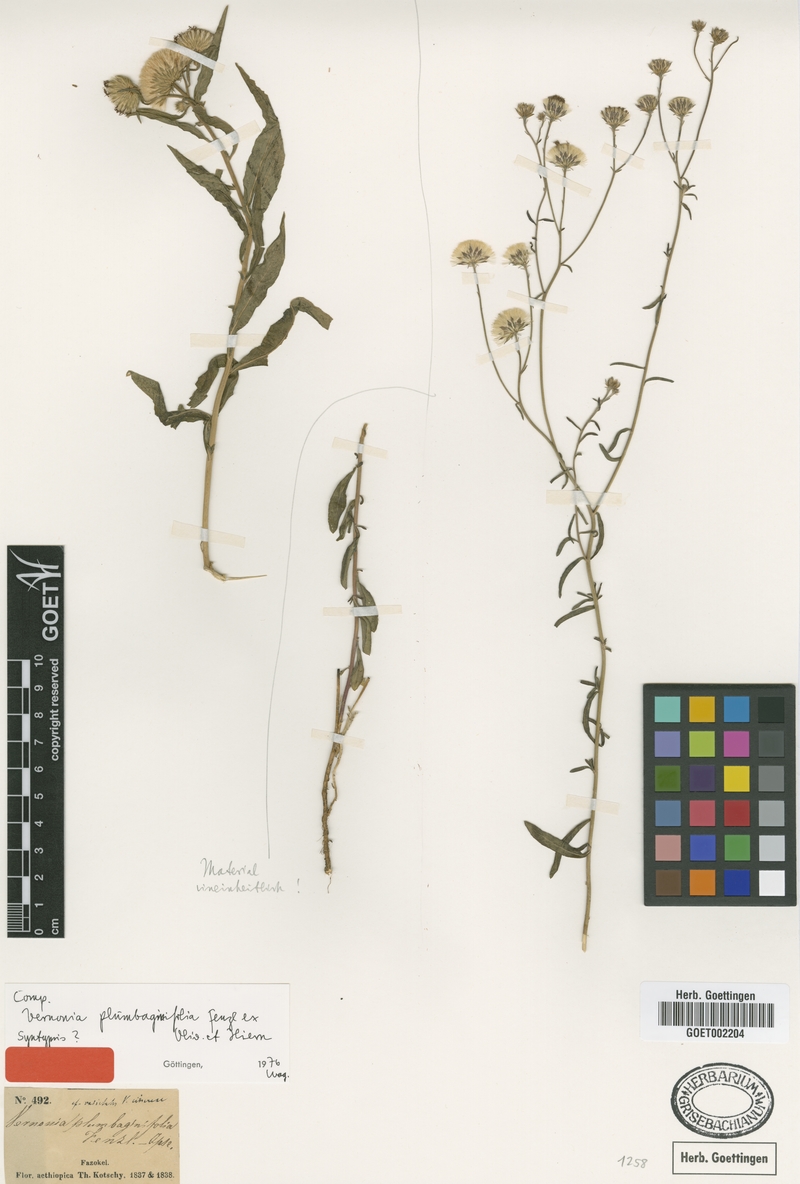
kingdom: Plantae
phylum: Tracheophyta
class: Magnoliopsida
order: Asterales
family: Asteraceae
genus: Vernonia
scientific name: Vernonia plumbaginifolia
